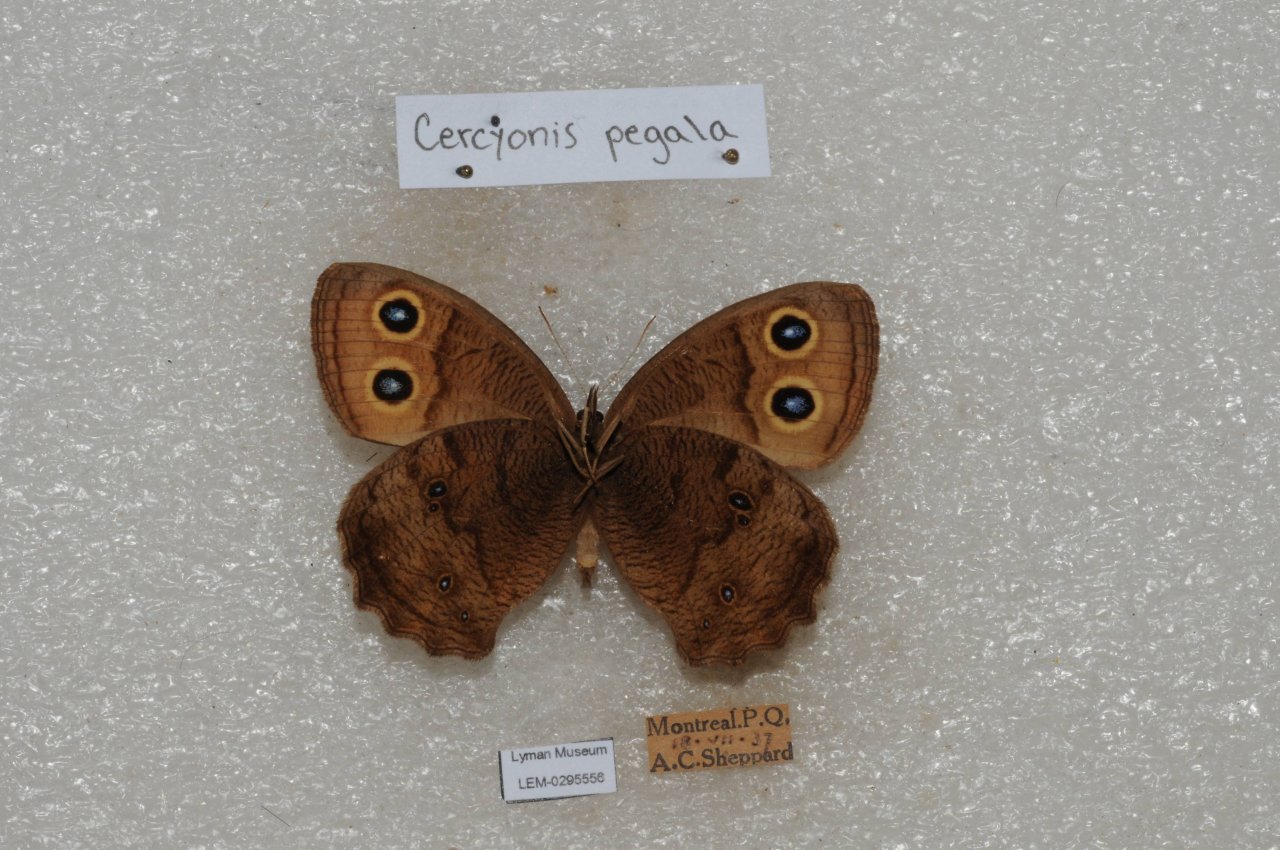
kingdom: Animalia
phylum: Arthropoda
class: Insecta
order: Lepidoptera
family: Nymphalidae
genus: Cercyonis
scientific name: Cercyonis pegala
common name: Common Wood-Nymph
